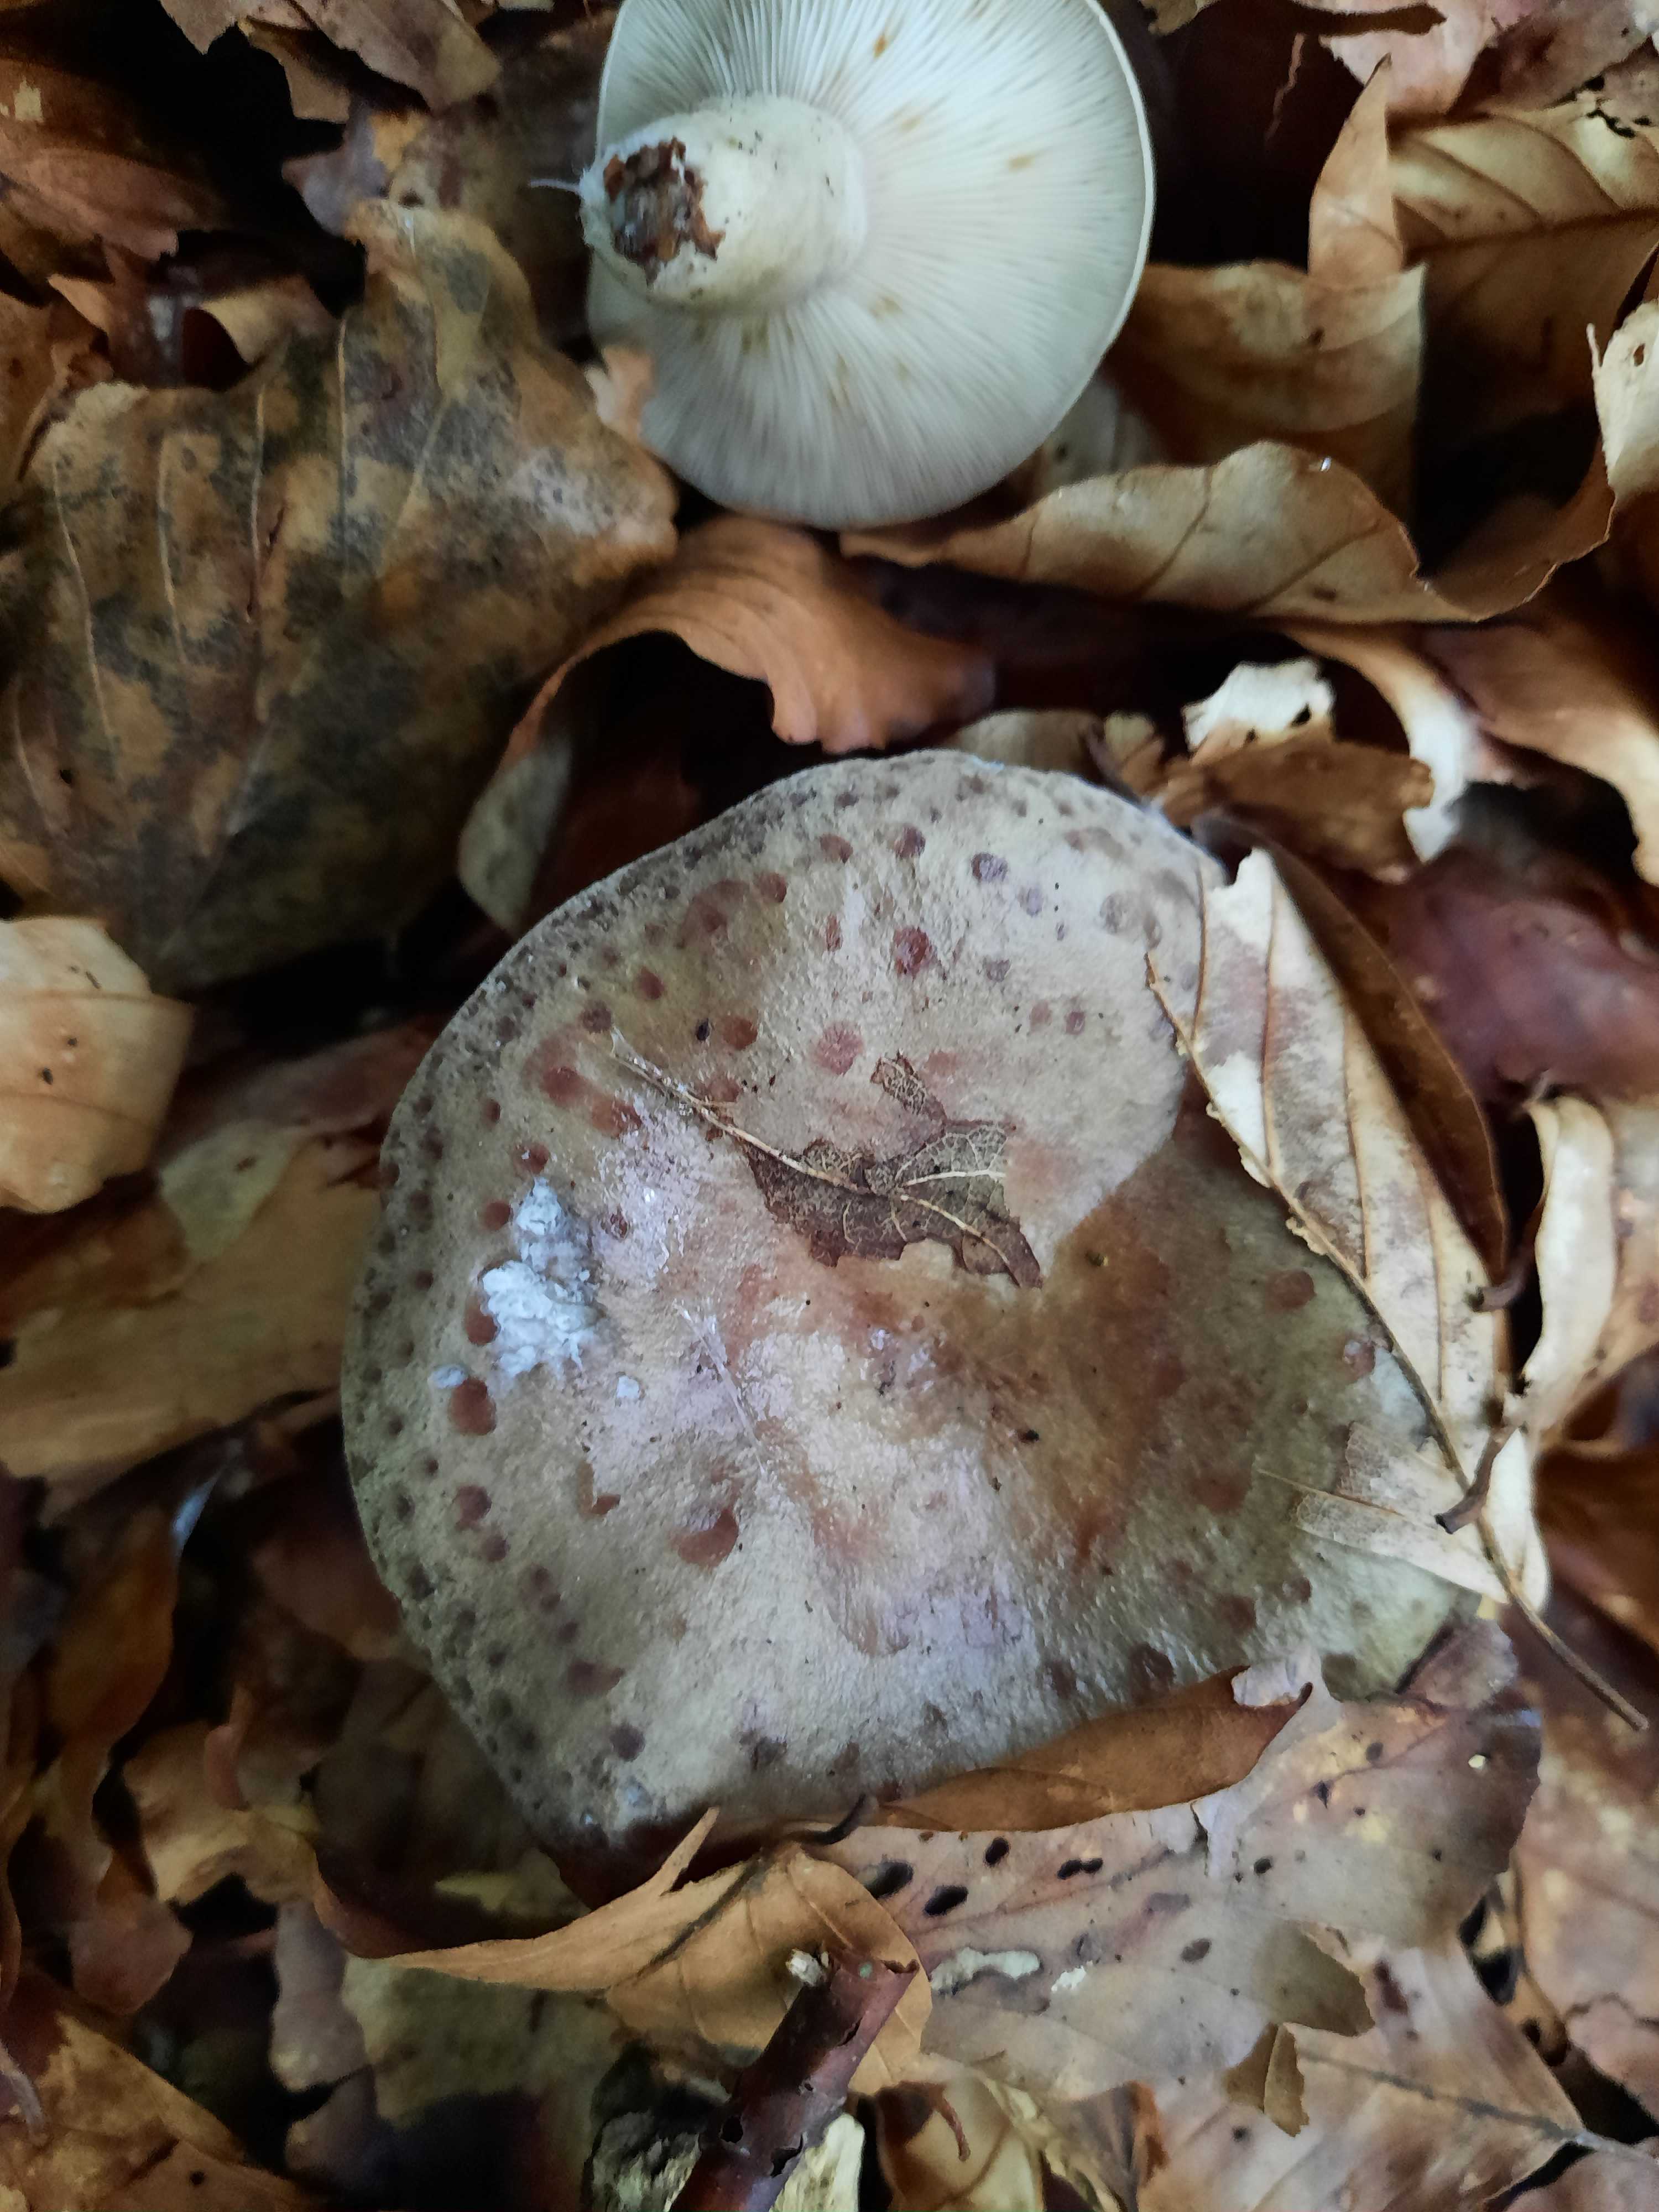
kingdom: Fungi
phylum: Basidiomycota
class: Agaricomycetes
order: Russulales
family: Russulaceae
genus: Lactarius
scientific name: Lactarius blennius
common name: dråbeplettet mælkehat
